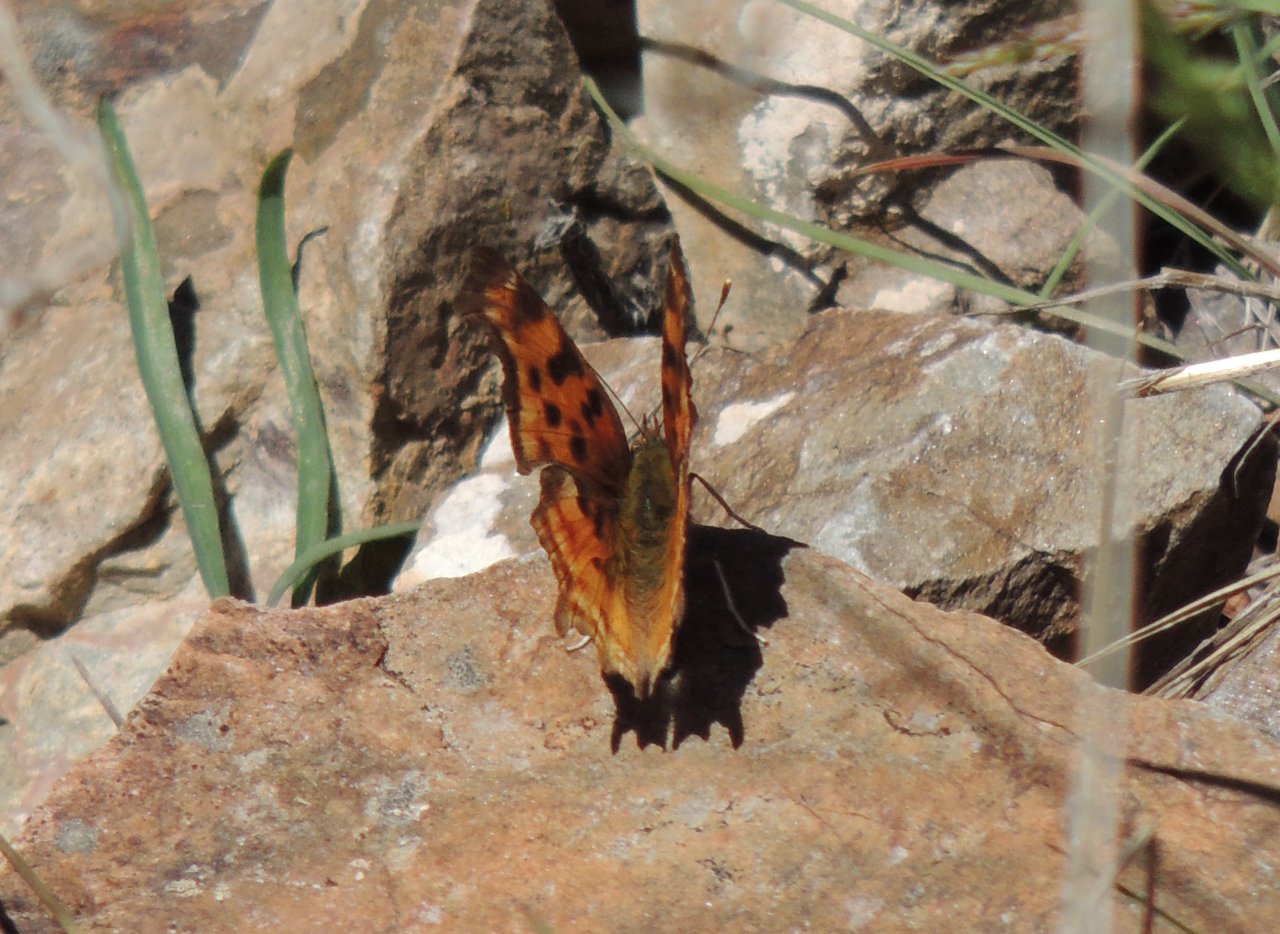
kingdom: Animalia
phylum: Arthropoda
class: Insecta
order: Lepidoptera
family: Nymphalidae
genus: Polygonia
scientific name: Polygonia satyrus
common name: Satyr Comma
